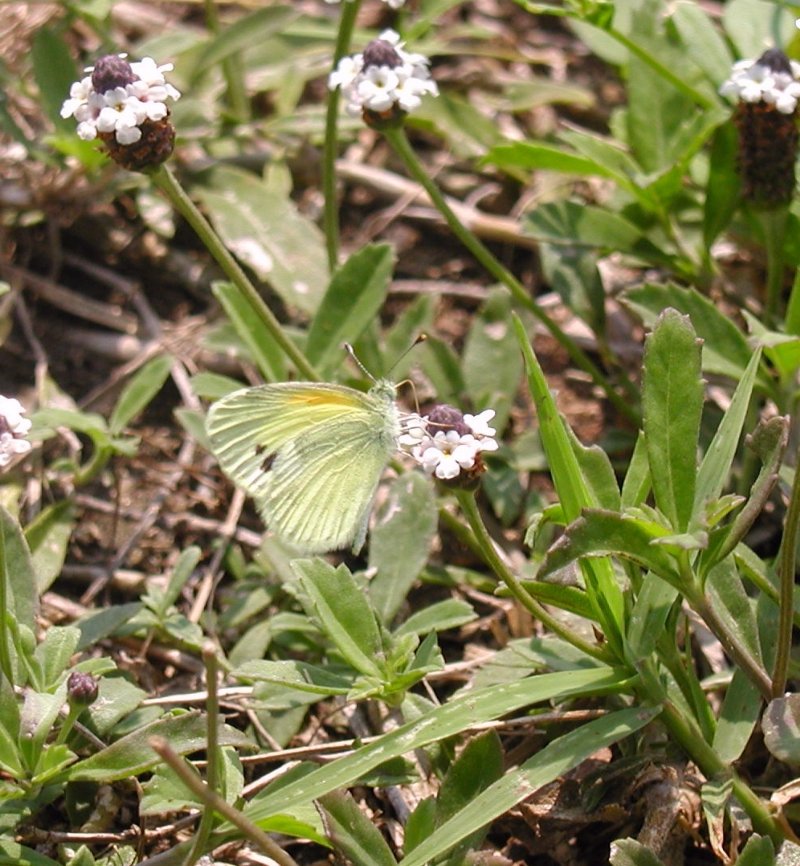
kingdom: Animalia
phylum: Arthropoda
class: Insecta
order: Lepidoptera
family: Pieridae
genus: Nathalis
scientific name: Nathalis iole
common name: Dainty Sulphur
